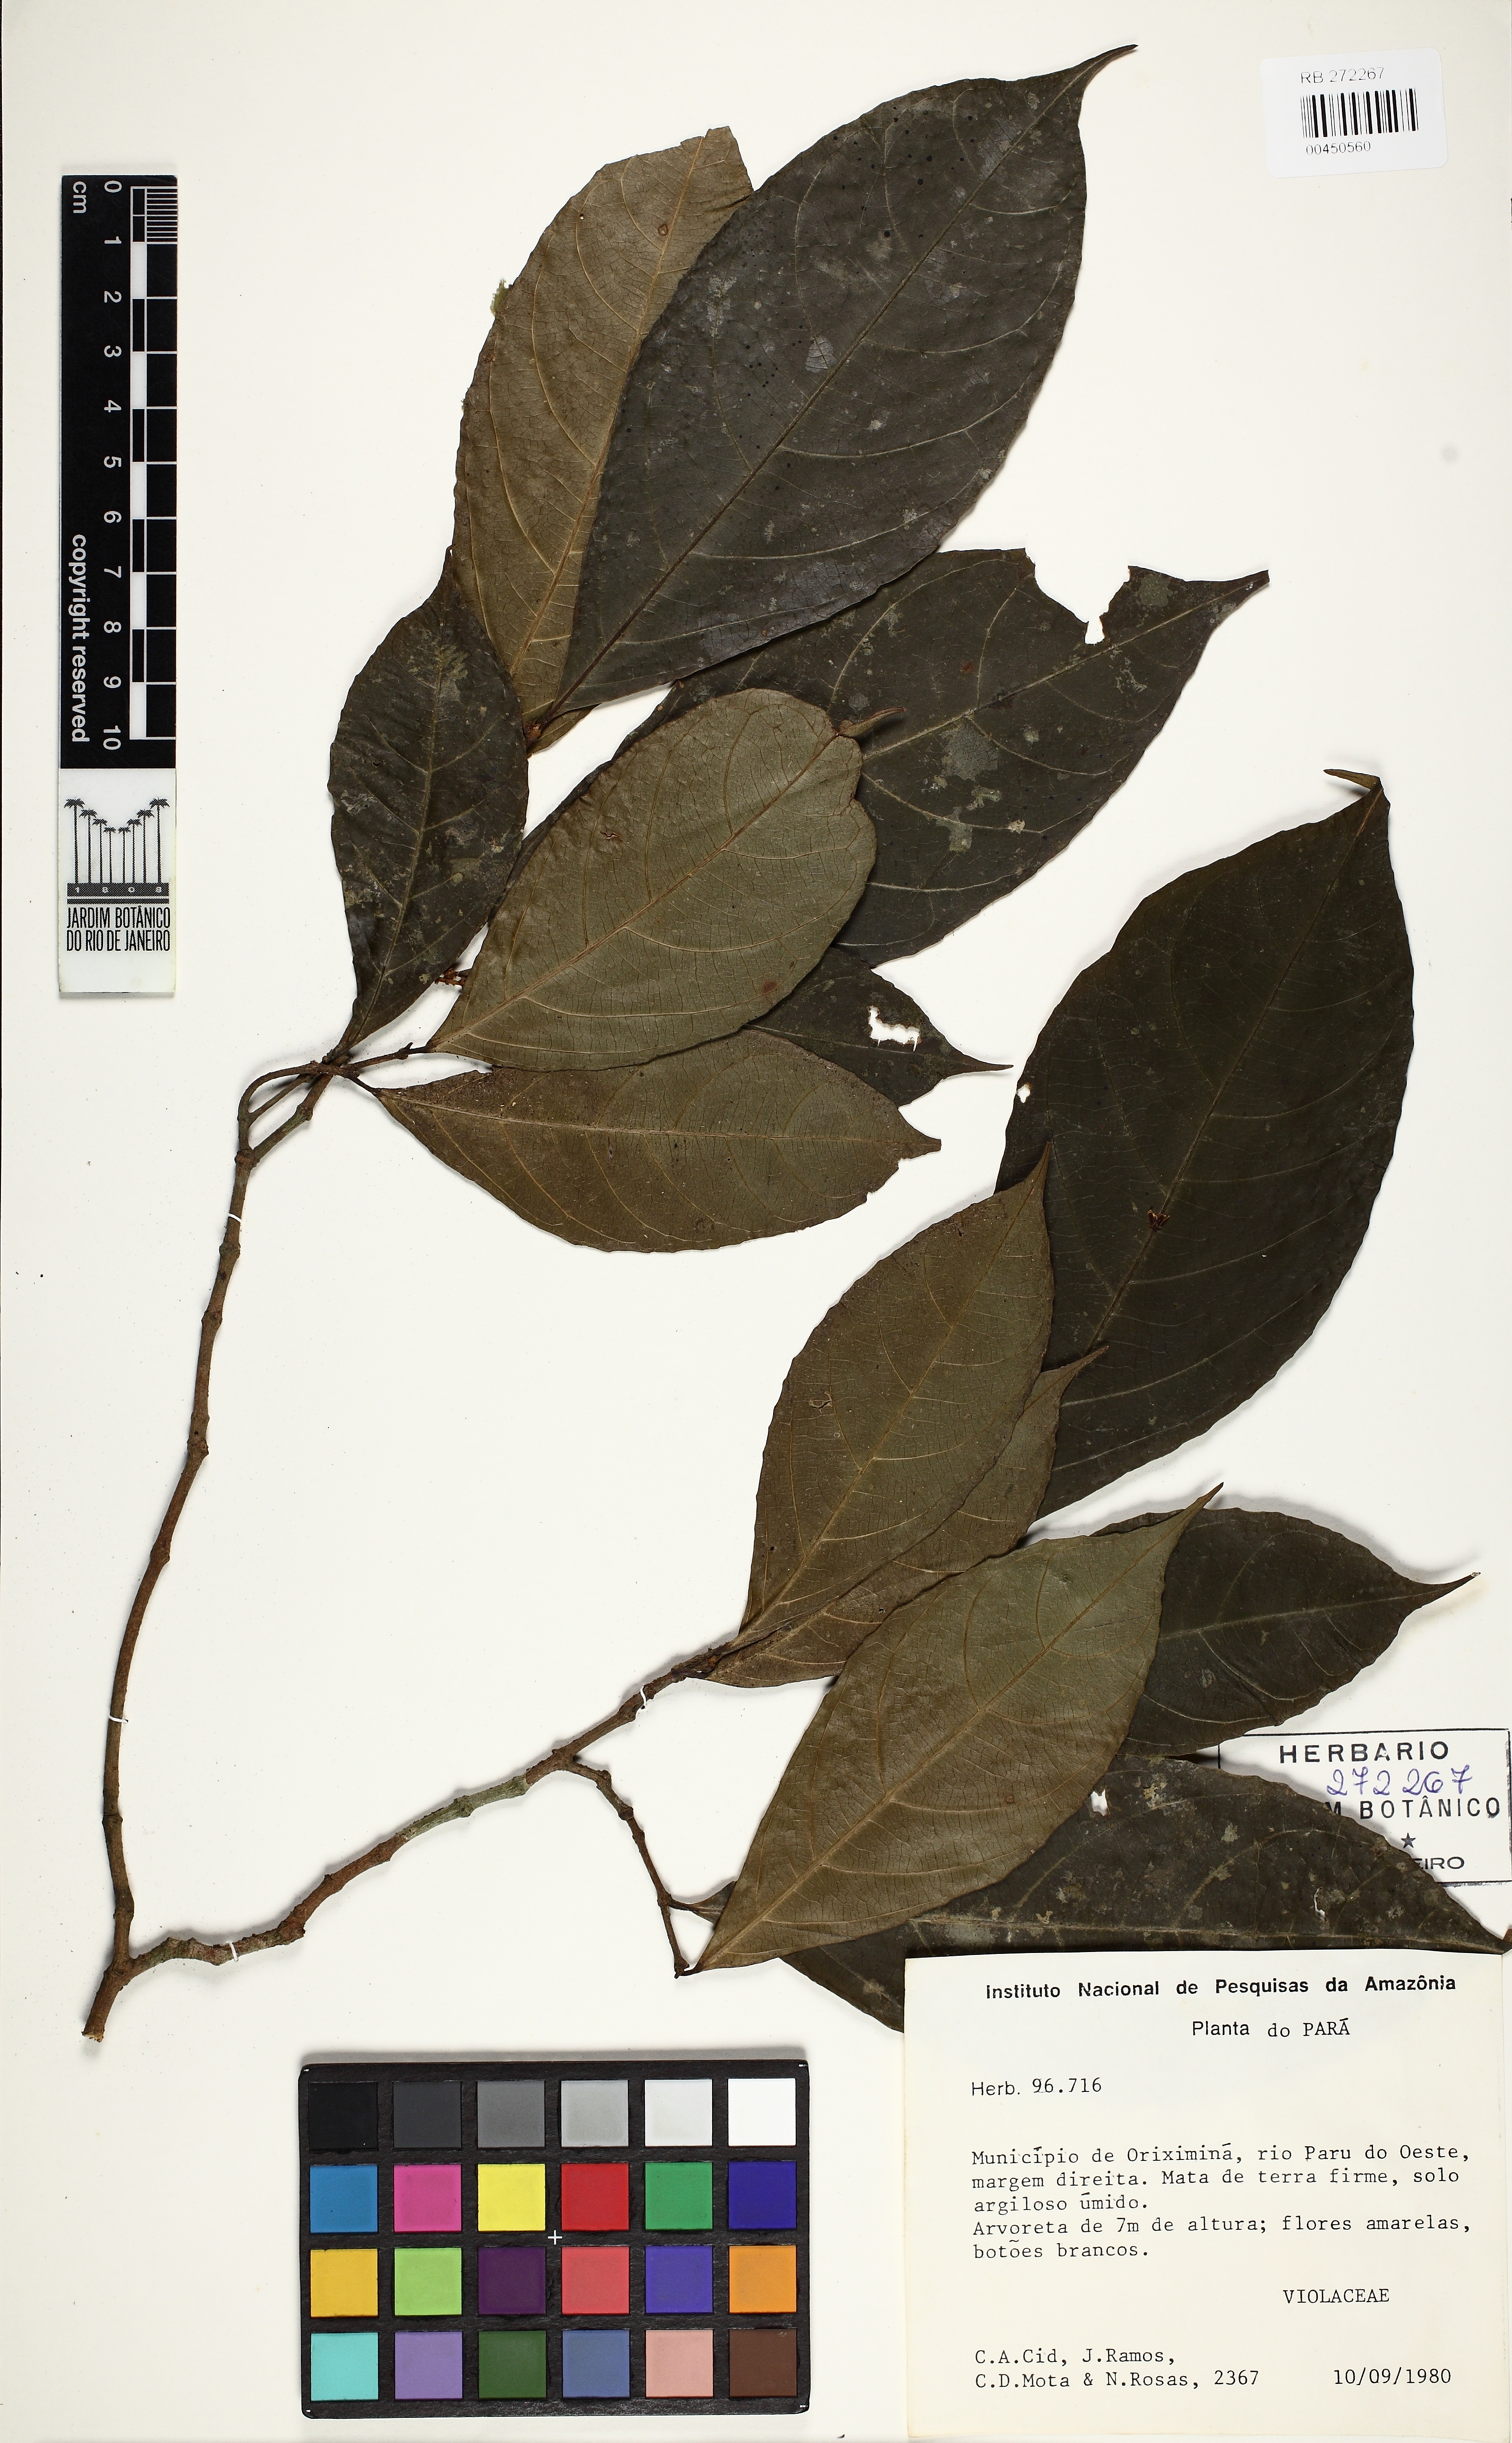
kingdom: Plantae
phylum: Tracheophyta
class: Magnoliopsida
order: Malpighiales
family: Violaceae
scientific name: Violaceae
